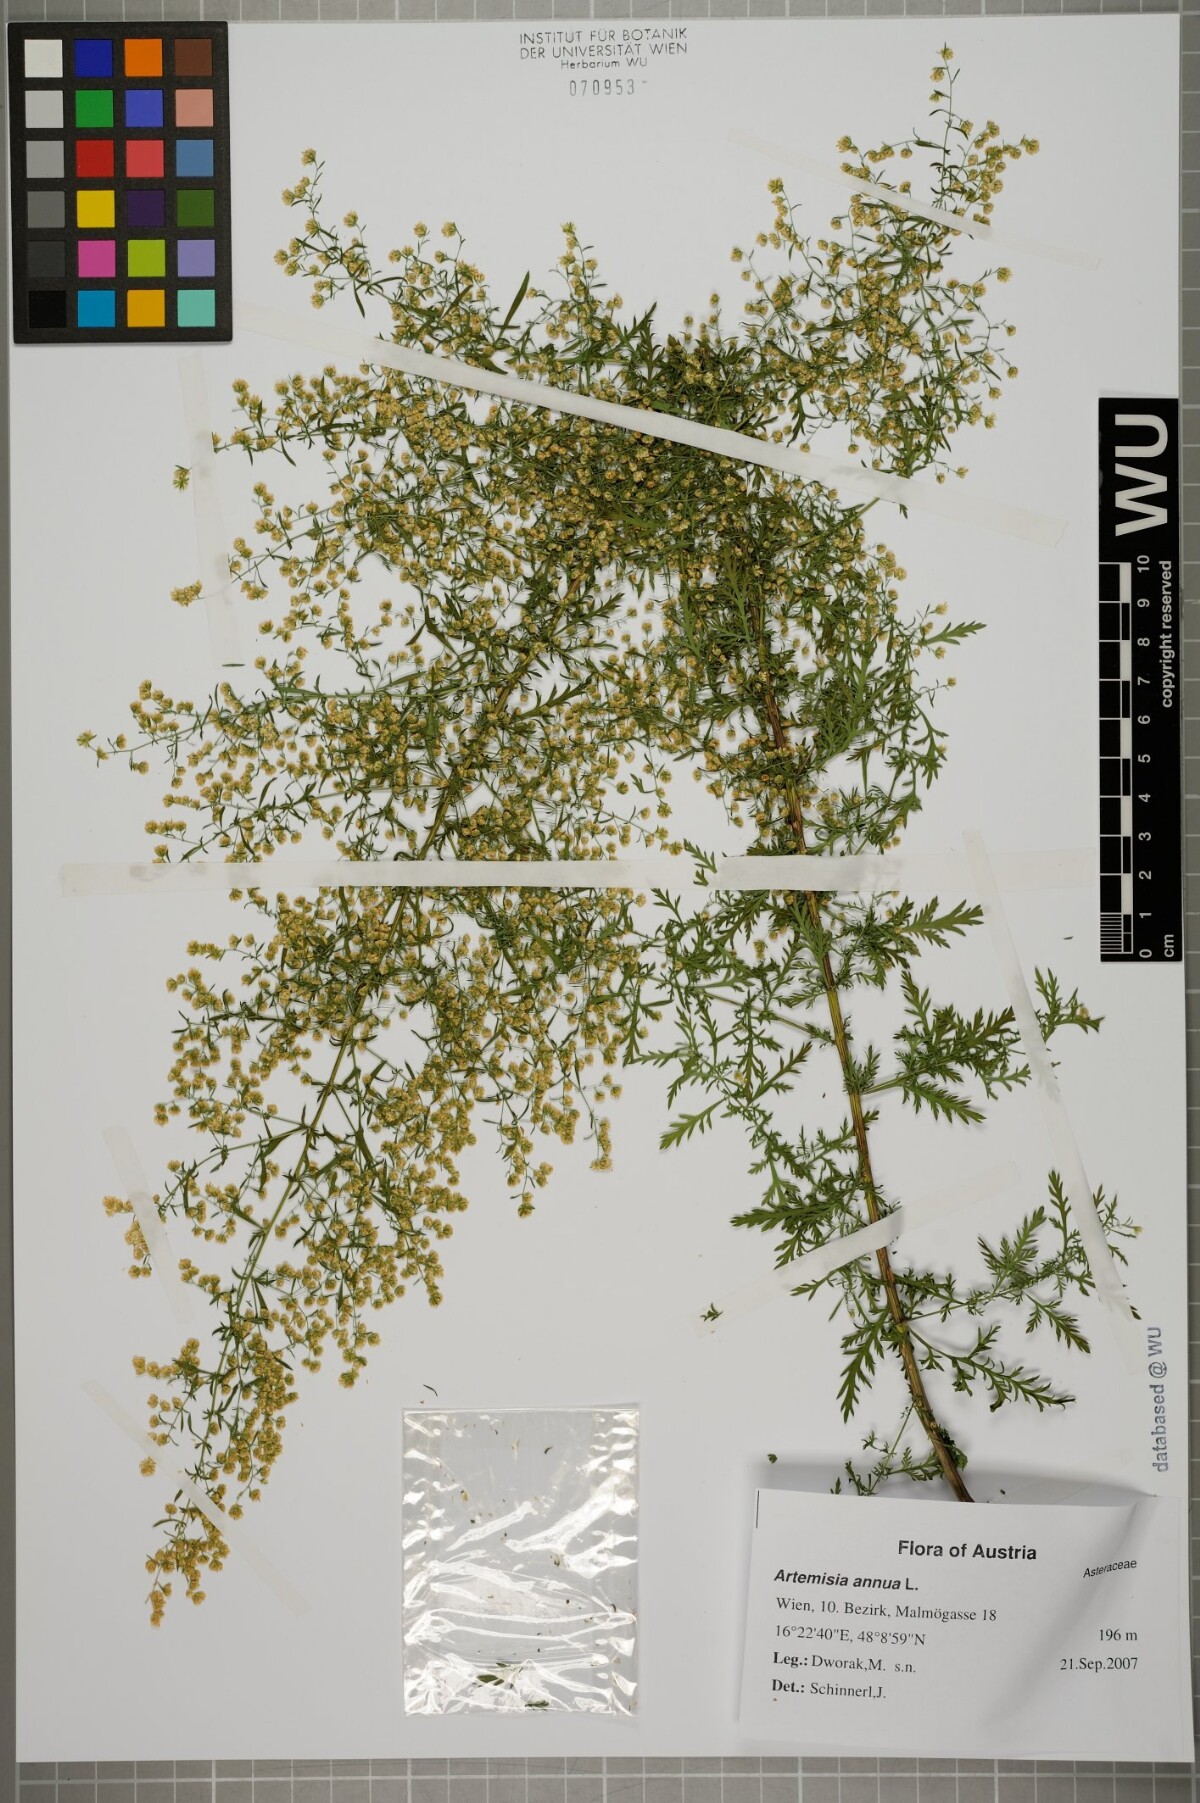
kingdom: Plantae
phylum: Tracheophyta
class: Magnoliopsida
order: Asterales
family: Asteraceae
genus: Artemisia
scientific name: Artemisia annua
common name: Sweet sagewort
